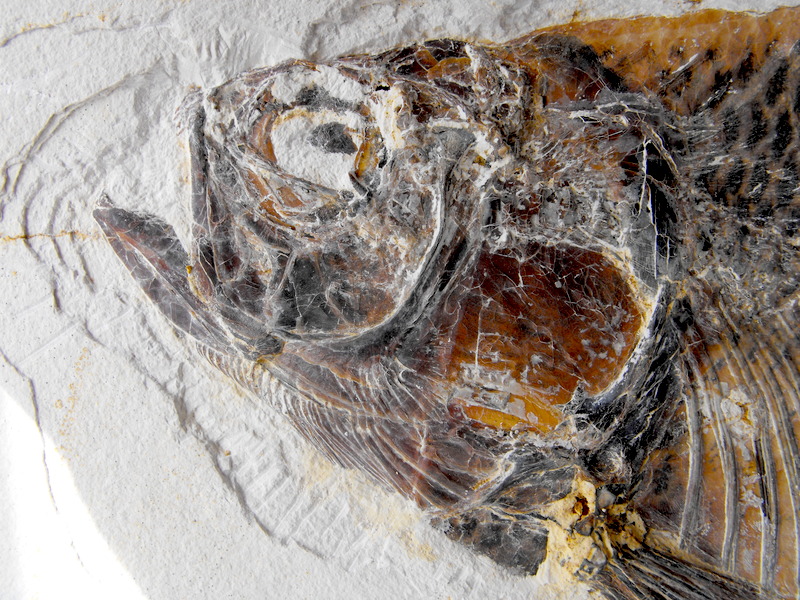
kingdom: Animalia
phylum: Chordata
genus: Thrissops
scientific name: Thrissops formosus
